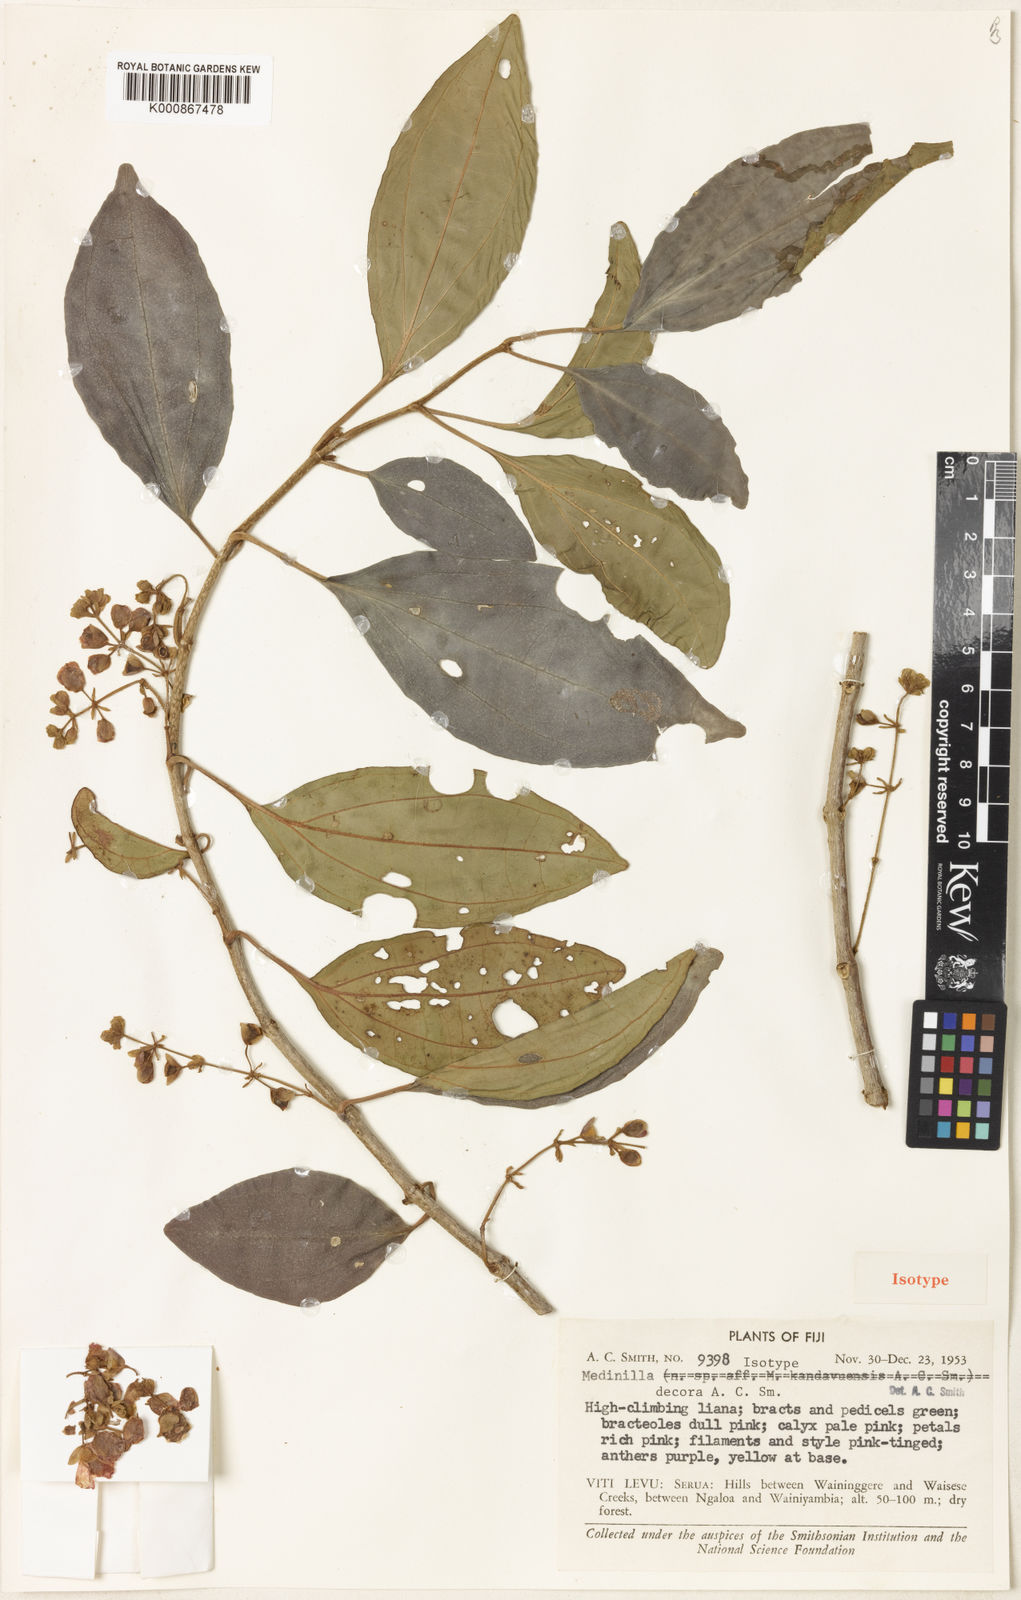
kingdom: Plantae
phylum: Tracheophyta
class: Magnoliopsida
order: Myrtales
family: Melastomataceae
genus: Medinilla
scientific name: Medinilla decora
